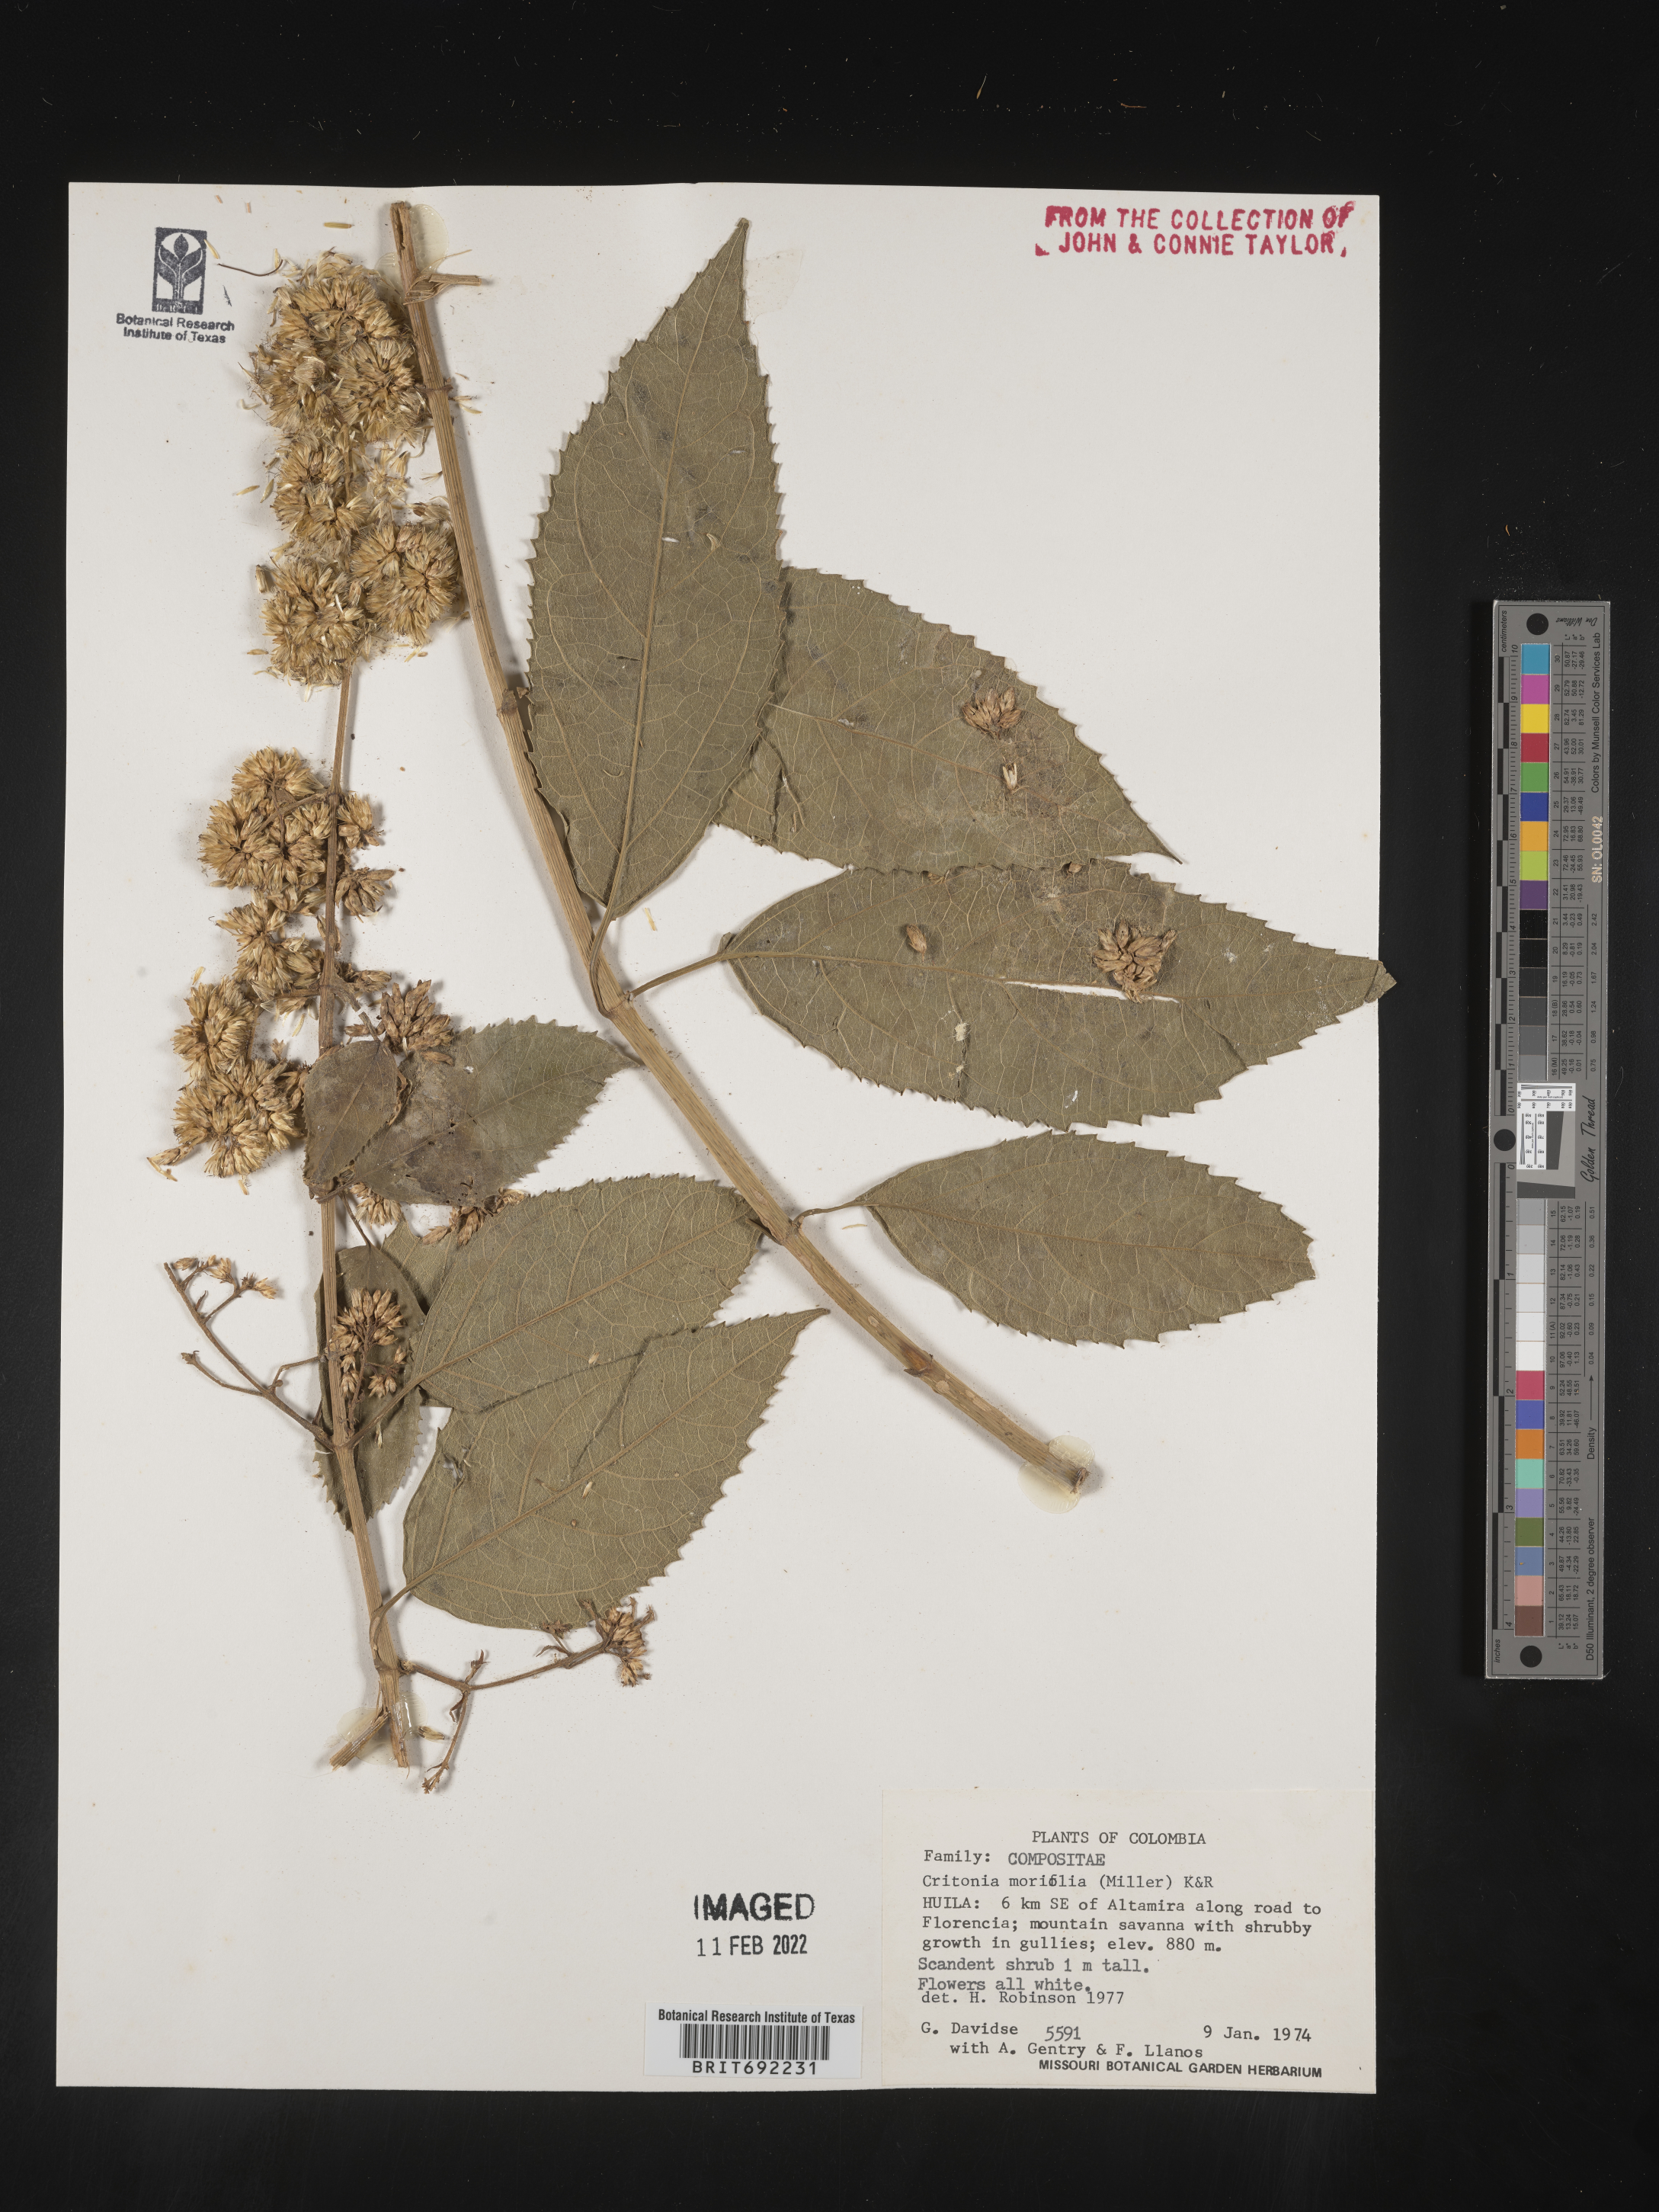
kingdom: Plantae
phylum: Tracheophyta
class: Magnoliopsida
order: Asterales
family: Asteraceae
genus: Critonia
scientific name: Critonia
